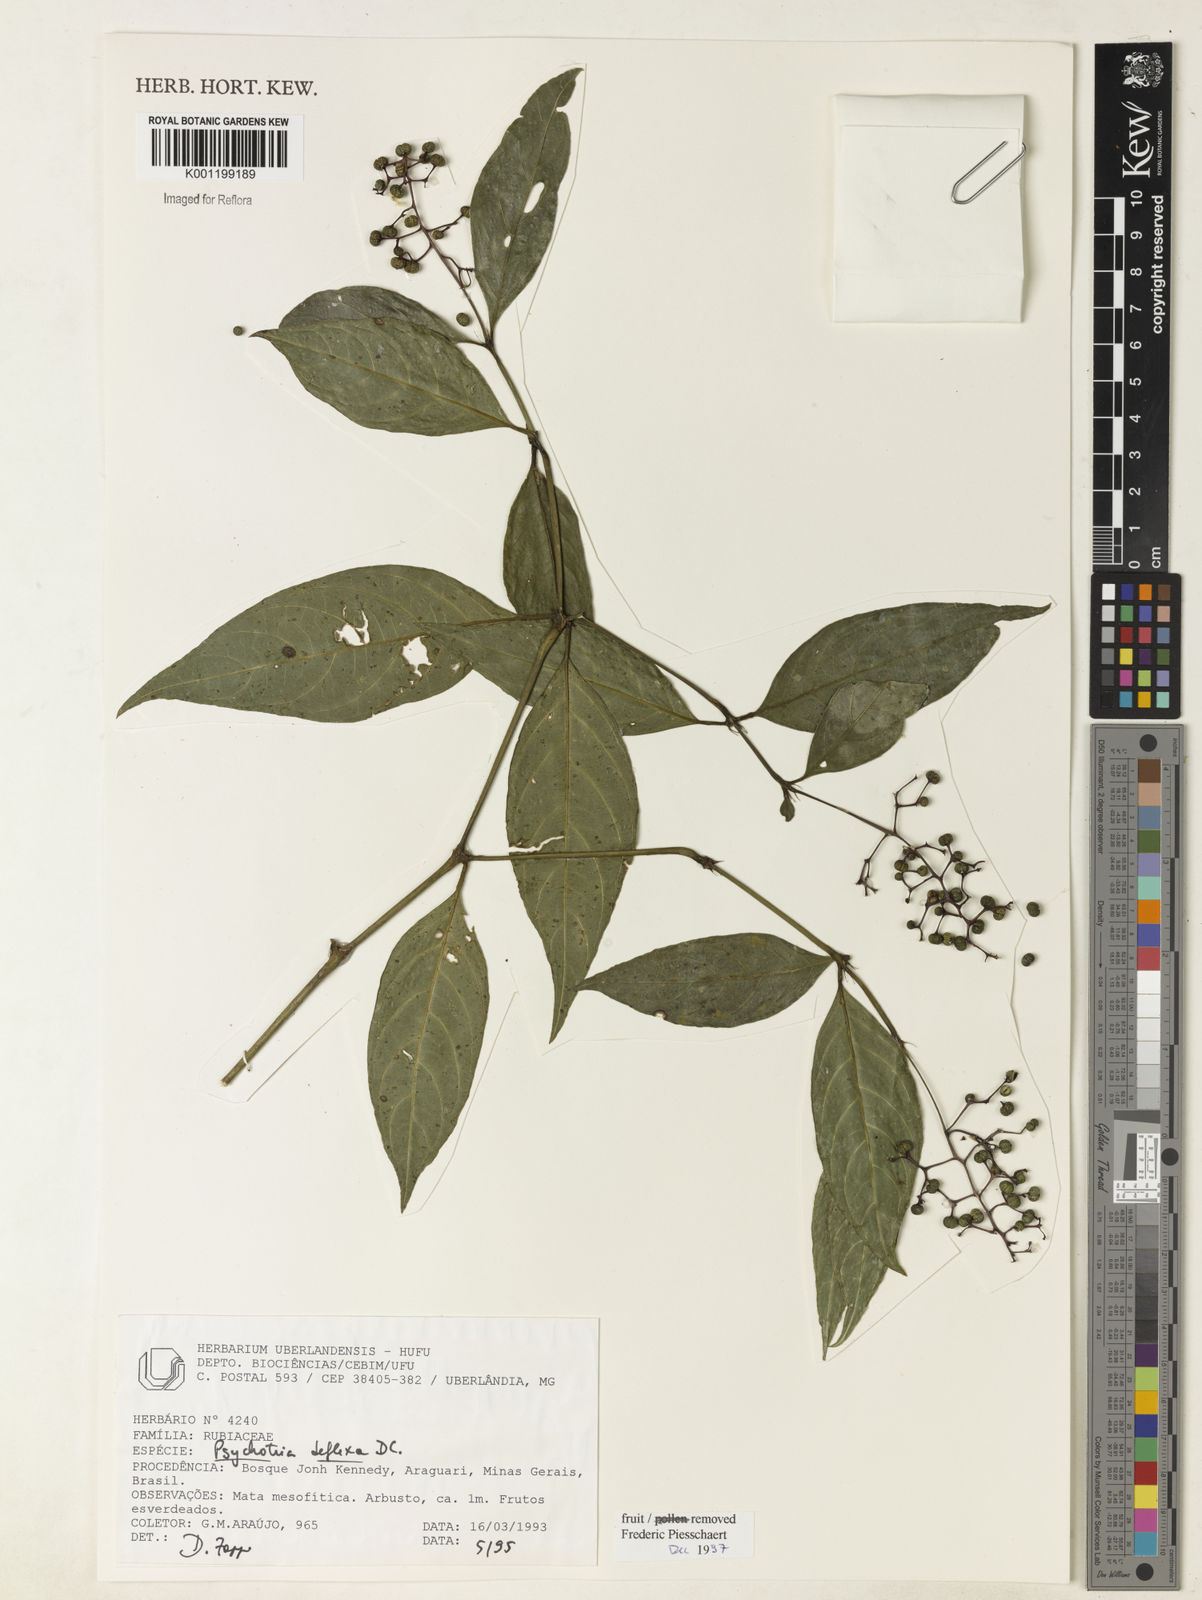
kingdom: Plantae
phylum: Tracheophyta
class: Magnoliopsida
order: Gentianales
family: Rubiaceae
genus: Palicourea
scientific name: Palicourea deflexa
